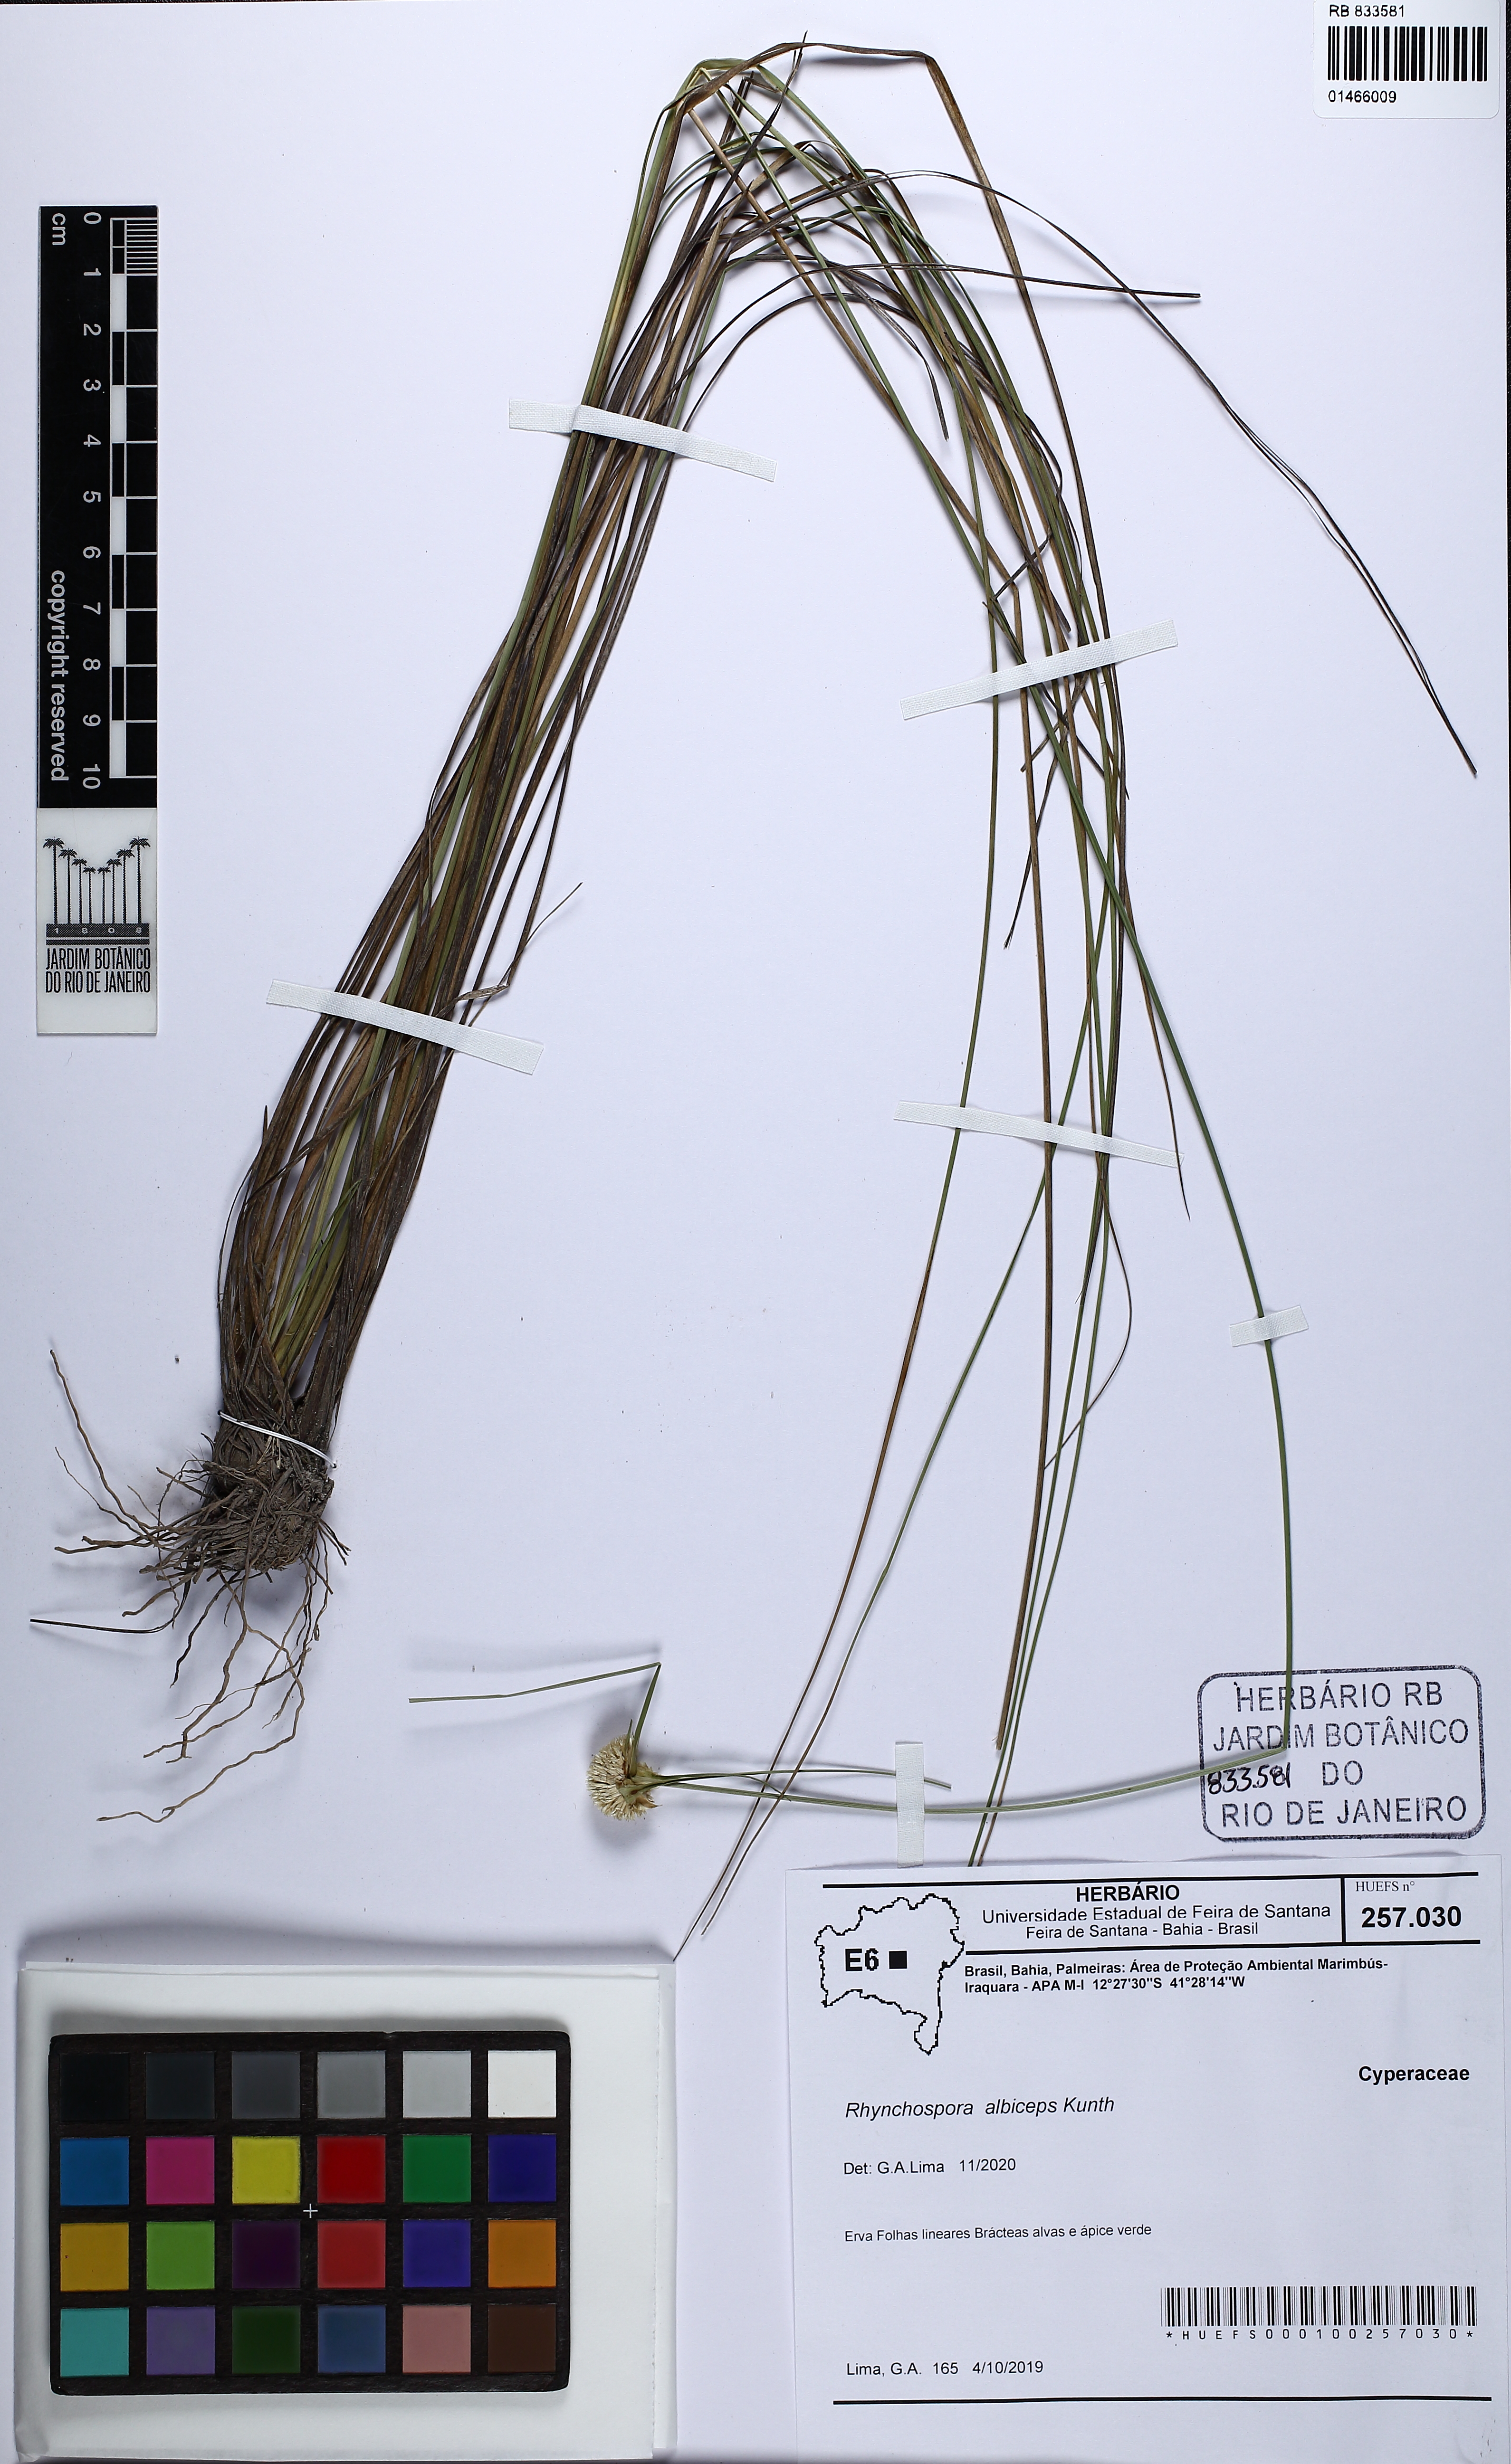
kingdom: Plantae
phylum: Tracheophyta
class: Liliopsida
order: Poales
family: Cyperaceae
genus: Rhynchospora
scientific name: Rhynchospora albiceps
